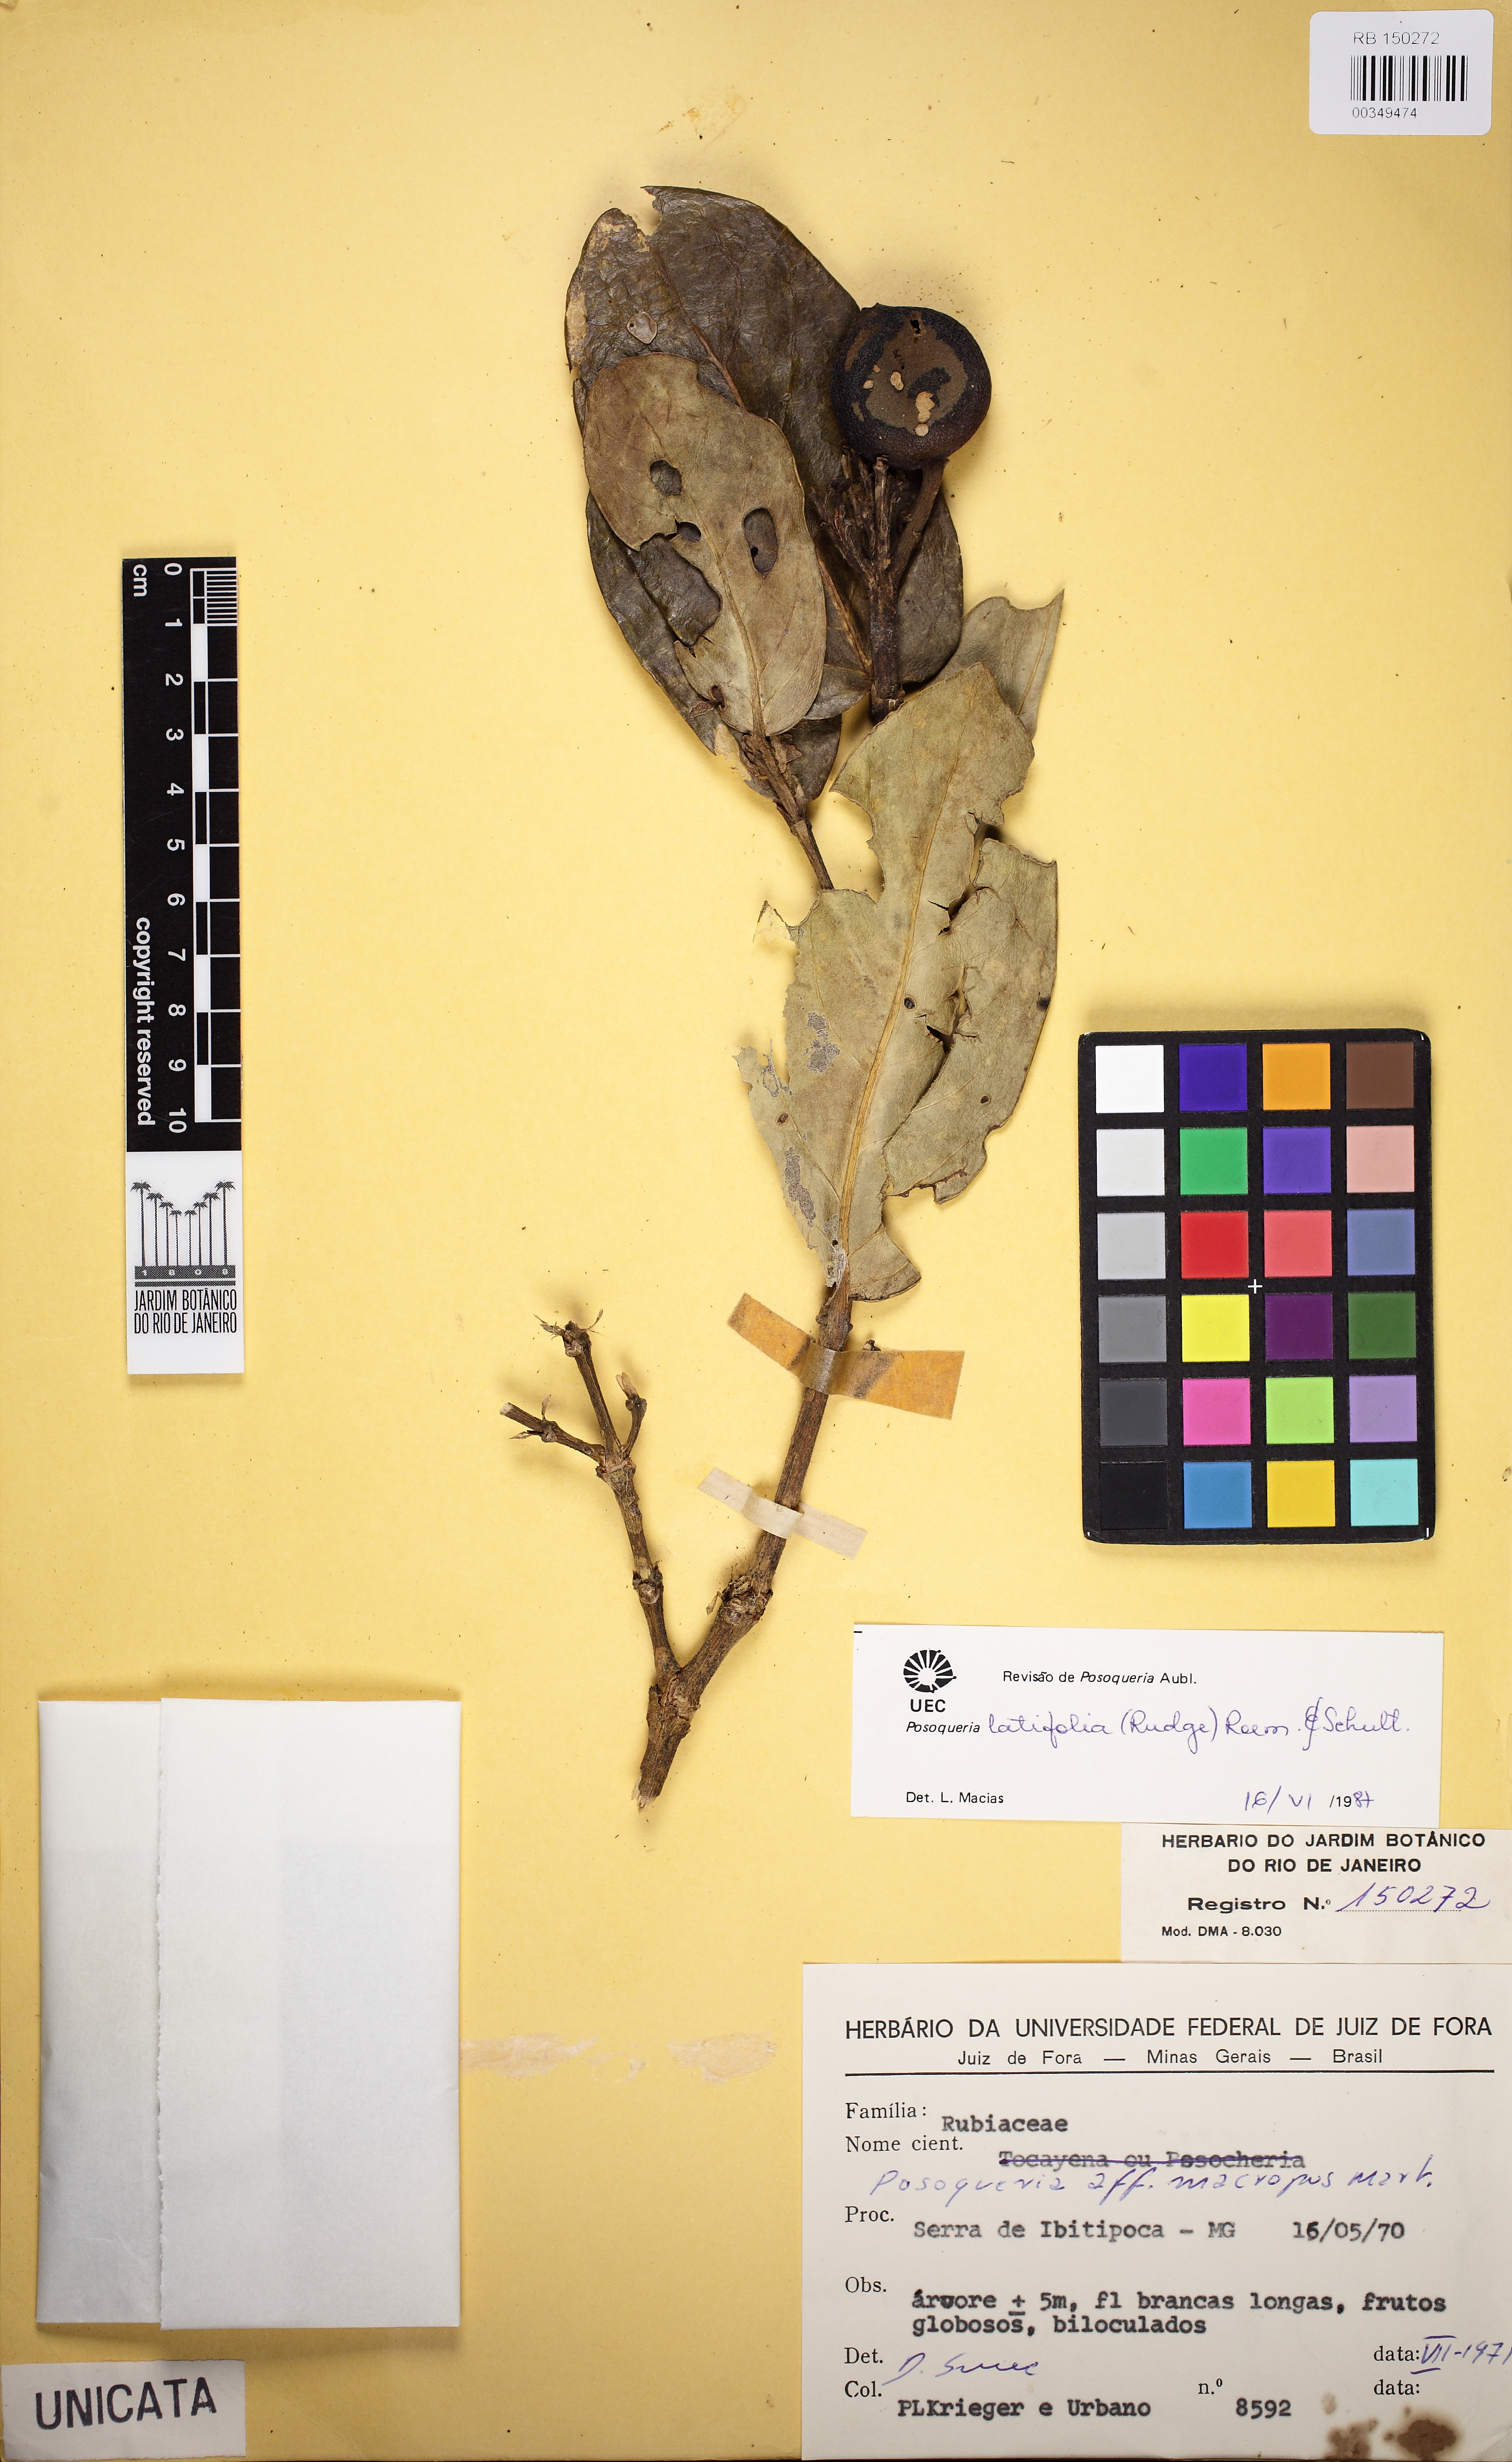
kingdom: Plantae
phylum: Tracheophyta
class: Magnoliopsida
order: Gentianales
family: Rubiaceae
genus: Posoqueria
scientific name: Posoqueria latifolia
